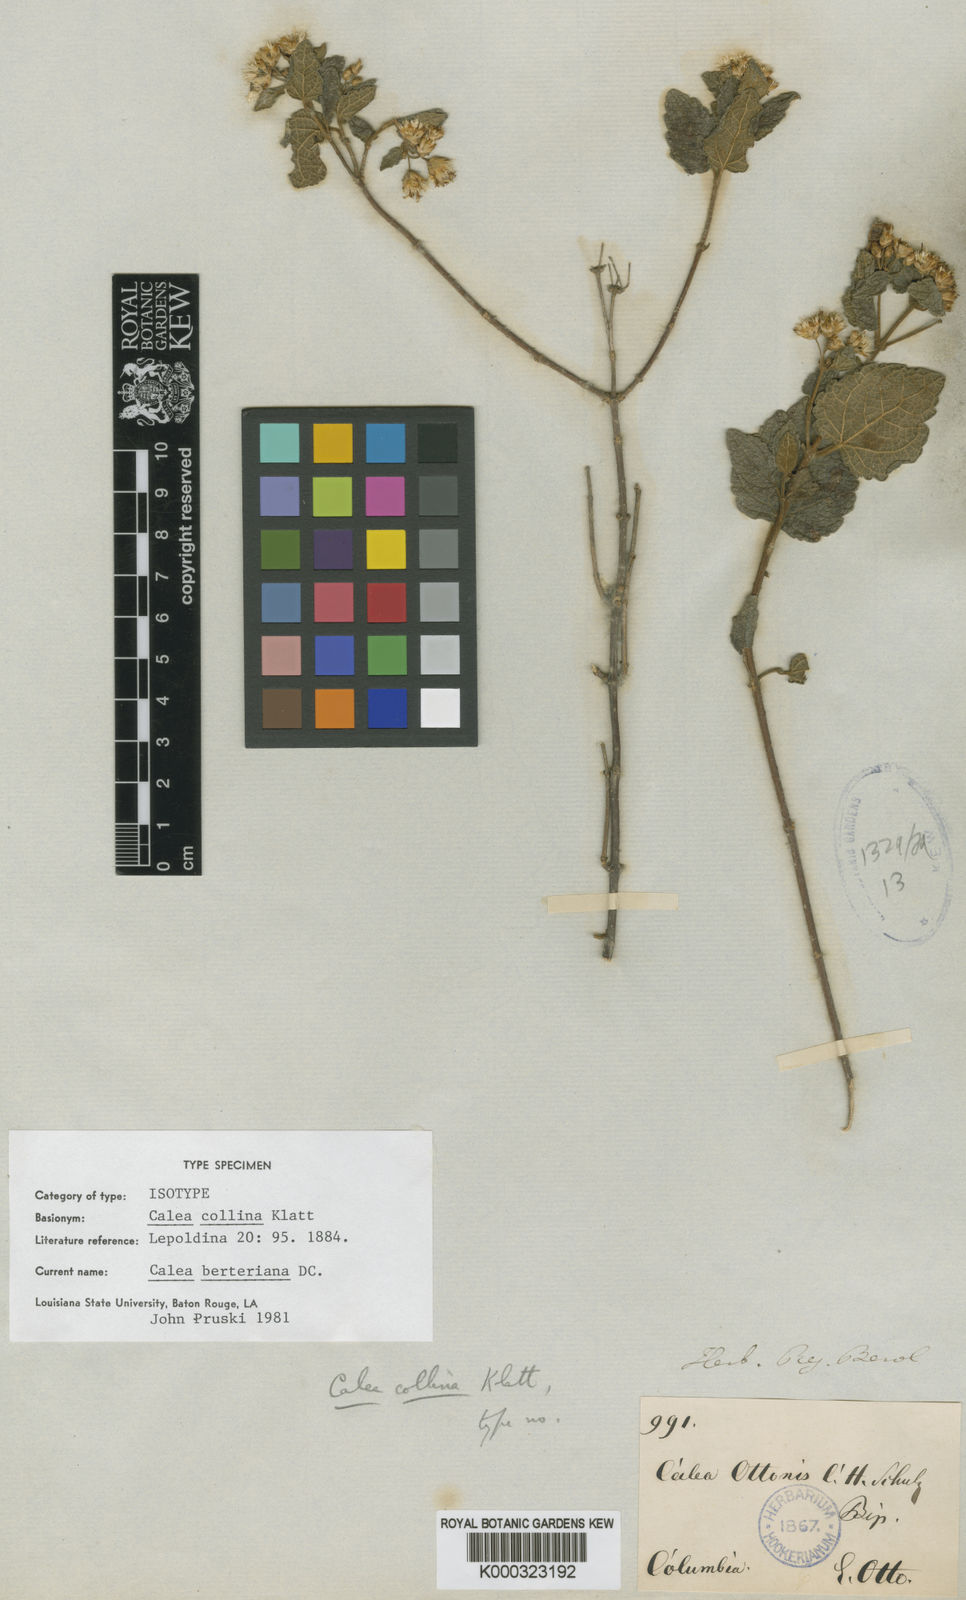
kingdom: Plantae
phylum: Tracheophyta
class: Magnoliopsida
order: Asterales
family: Asteraceae
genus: Calea
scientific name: Calea berteriana
